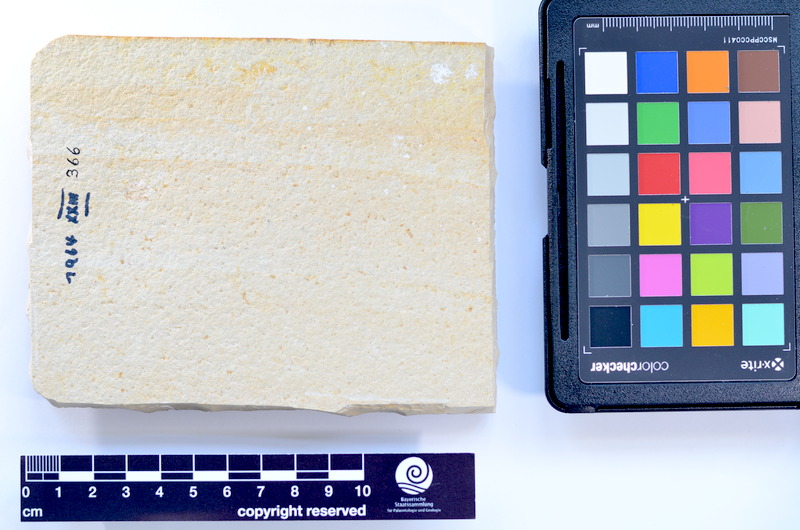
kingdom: Animalia
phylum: Chordata
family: Allothrissopidae
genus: Allothrissops
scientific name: Allothrissops
